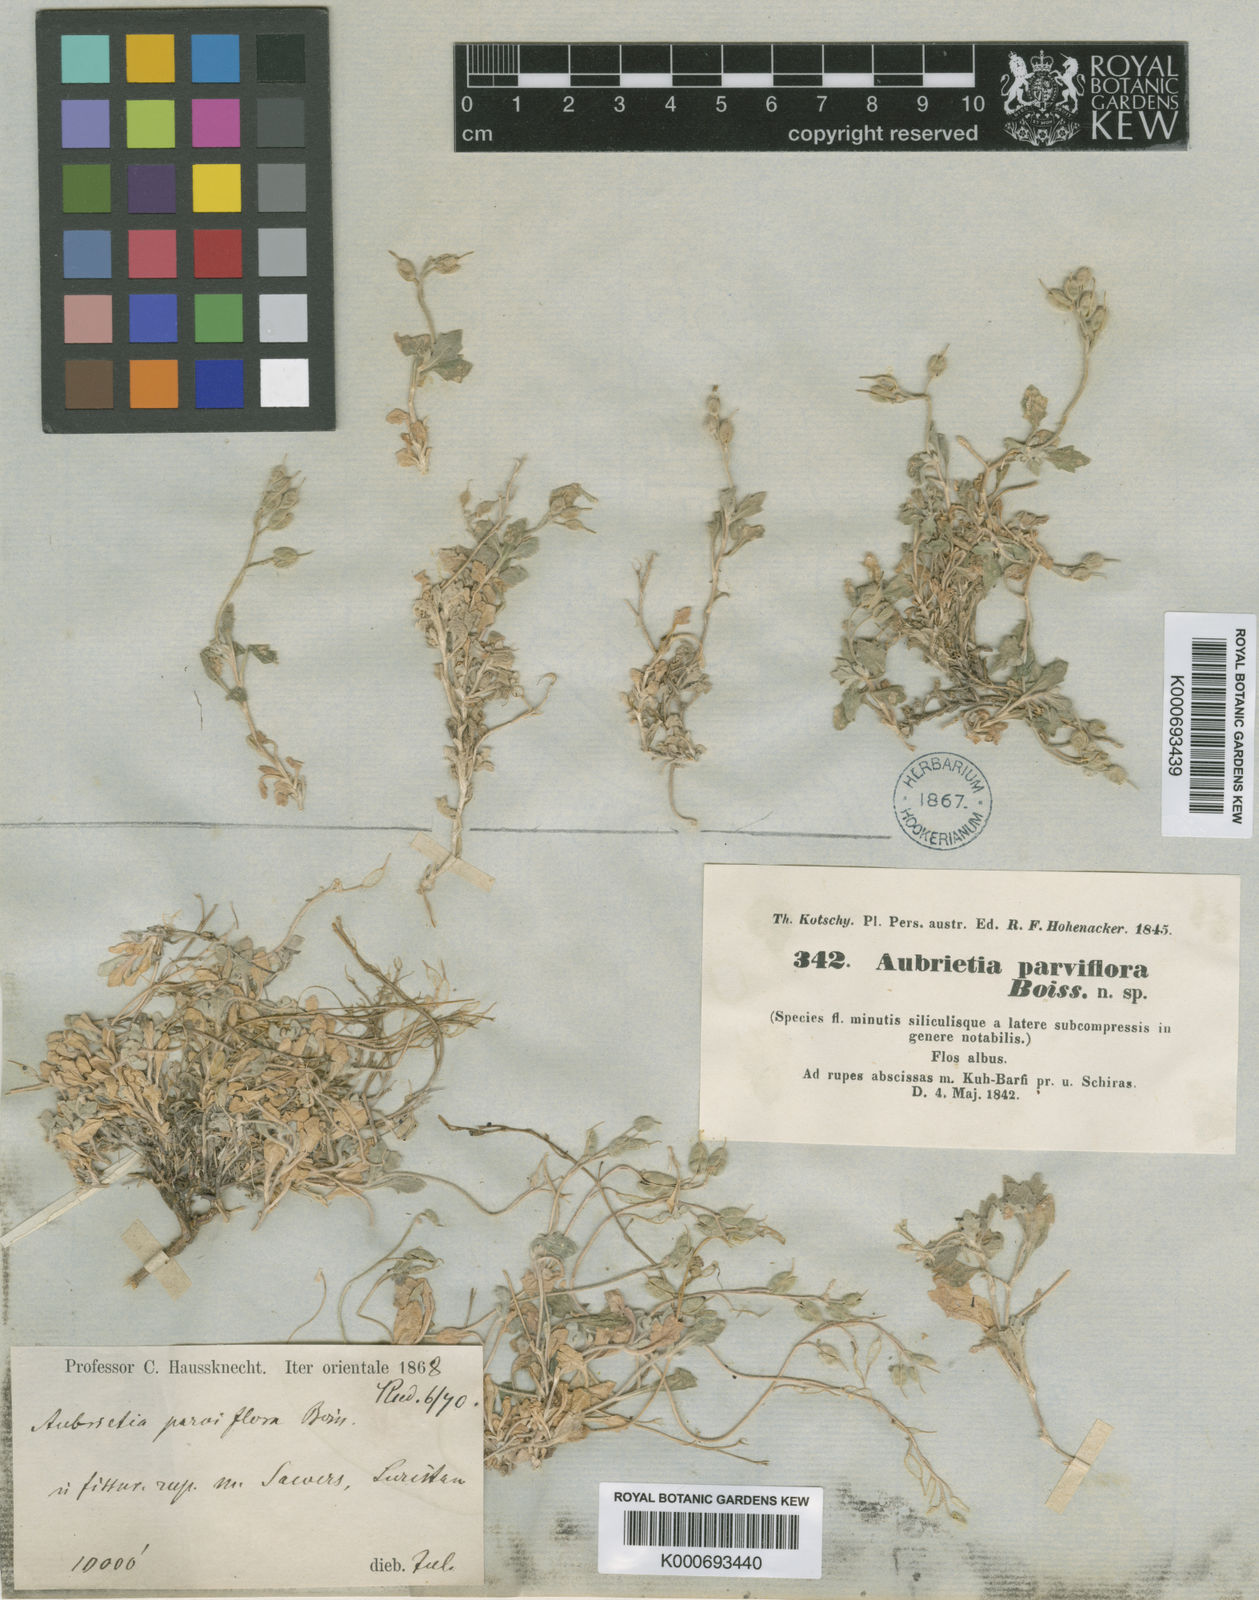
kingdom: Plantae
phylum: Tracheophyta
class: Magnoliopsida
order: Brassicales
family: Brassicaceae
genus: Aubrieta
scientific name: Aubrieta parviflora
